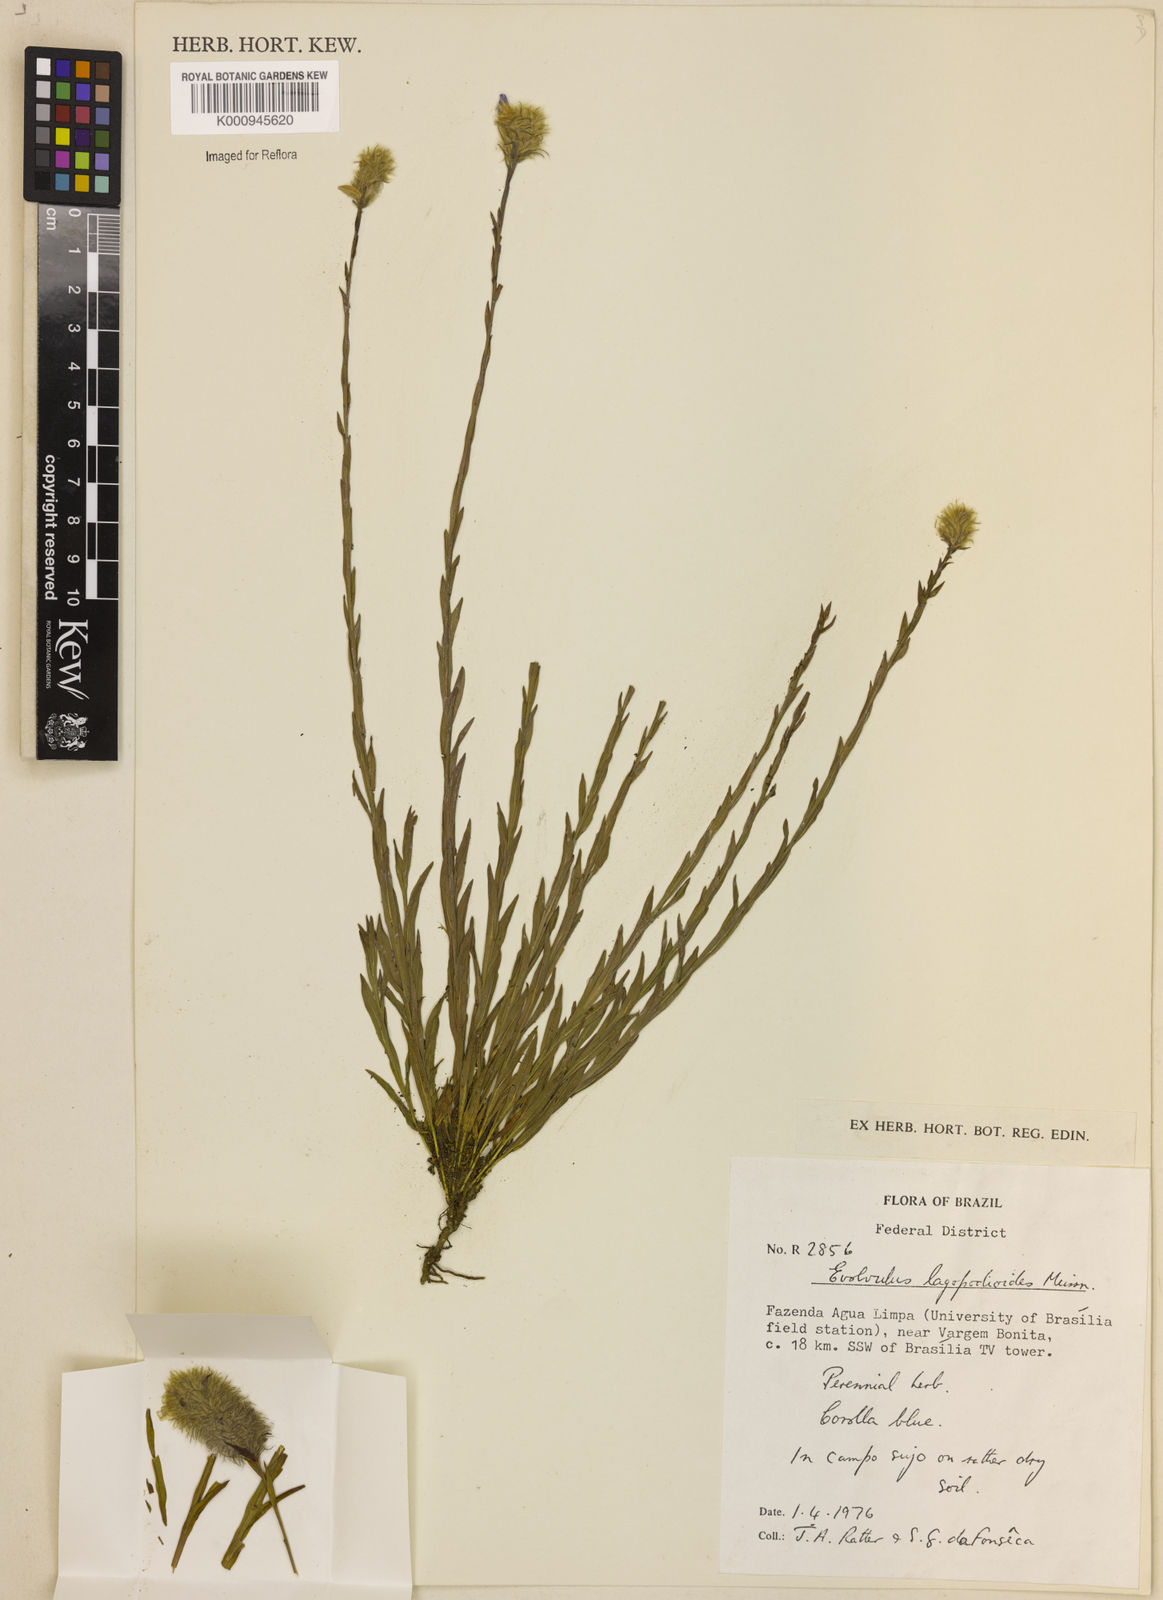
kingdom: Plantae
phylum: Tracheophyta
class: Magnoliopsida
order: Solanales
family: Convolvulaceae
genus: Evolvulus
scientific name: Evolvulus lagopodioides
